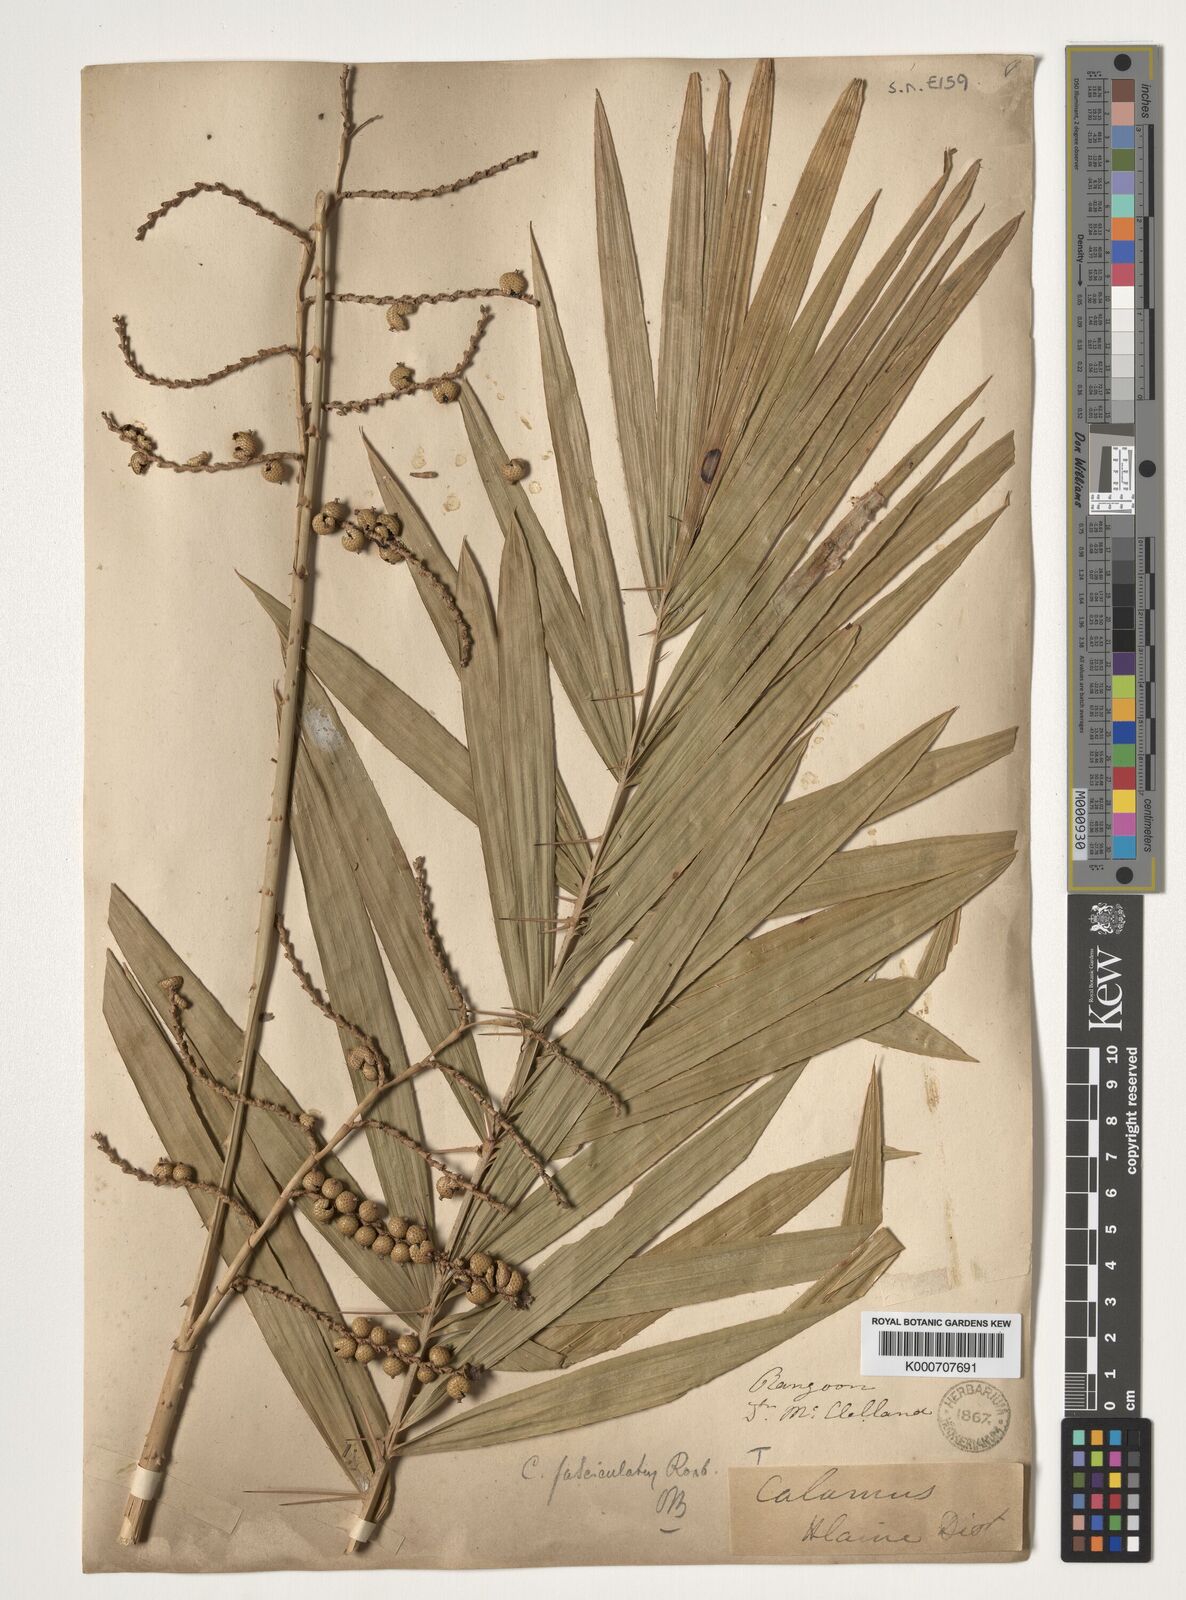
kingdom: Plantae
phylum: Tracheophyta
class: Liliopsida
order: Arecales
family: Arecaceae
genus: Calamus
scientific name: Calamus viminalis
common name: Osier-like rattan palm
